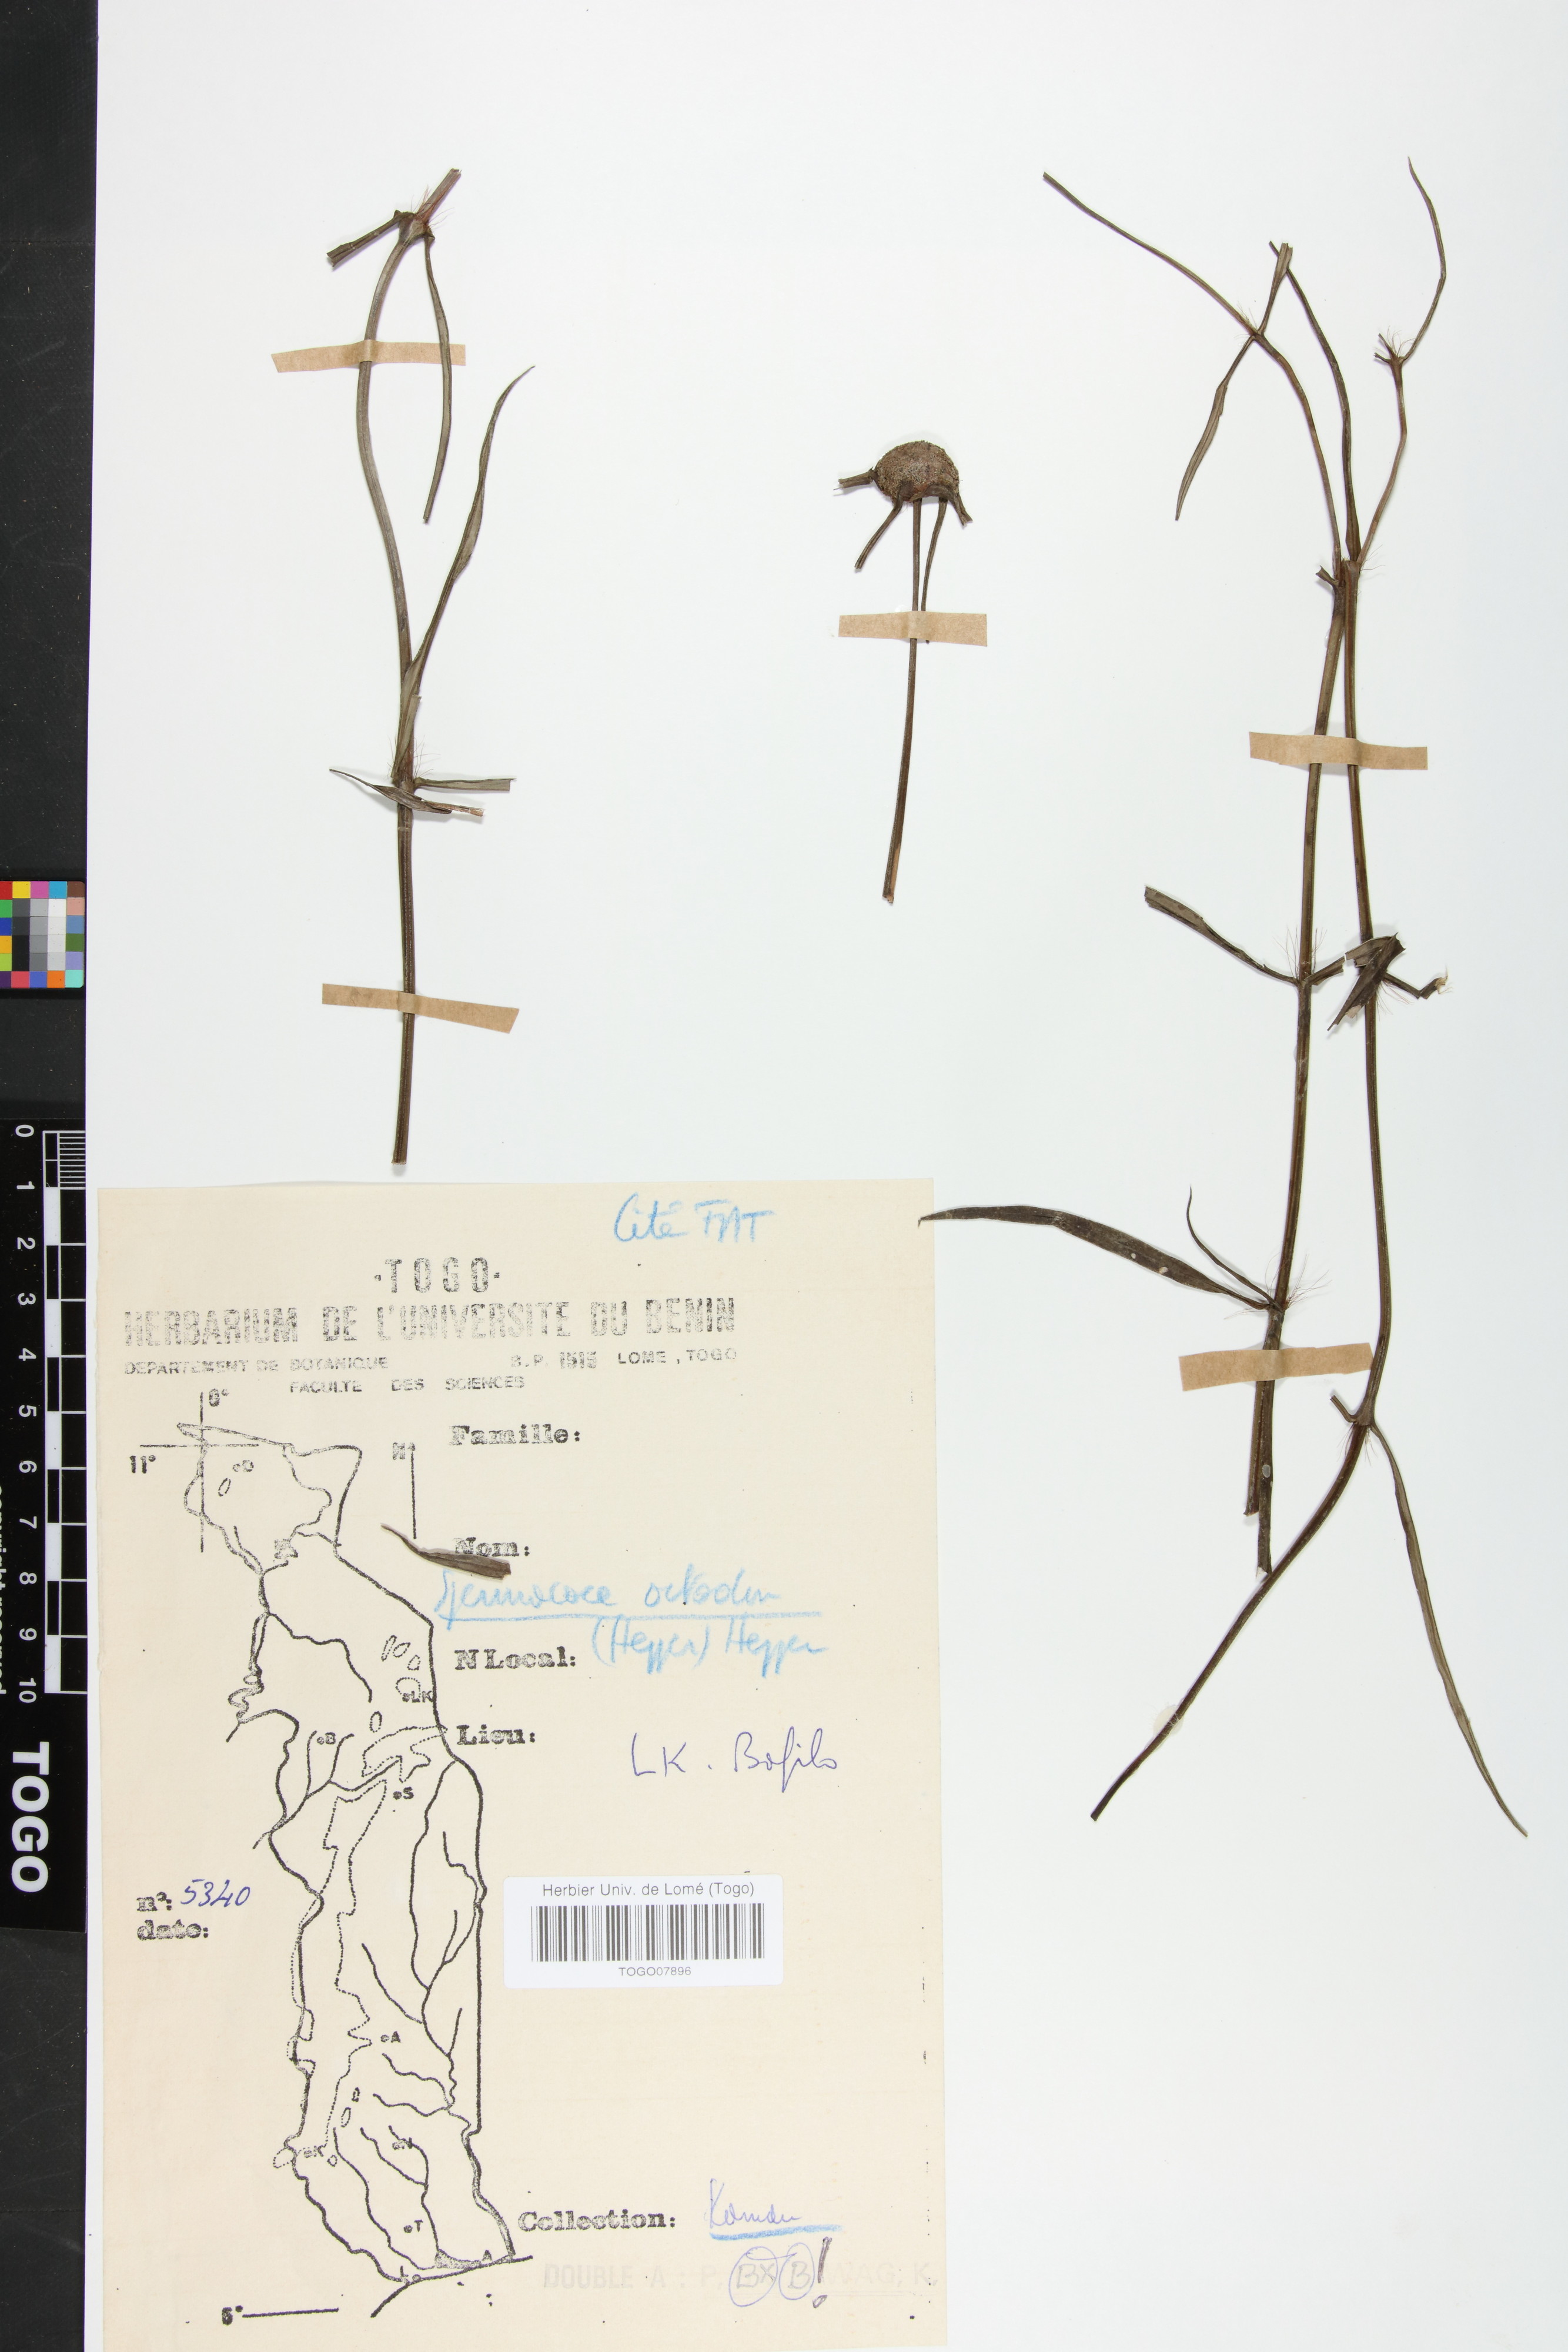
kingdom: Plantae
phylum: Tracheophyta
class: Magnoliopsida
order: Gentianales
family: Rubiaceae
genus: Spermacoce
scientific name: Spermacoce octodon
